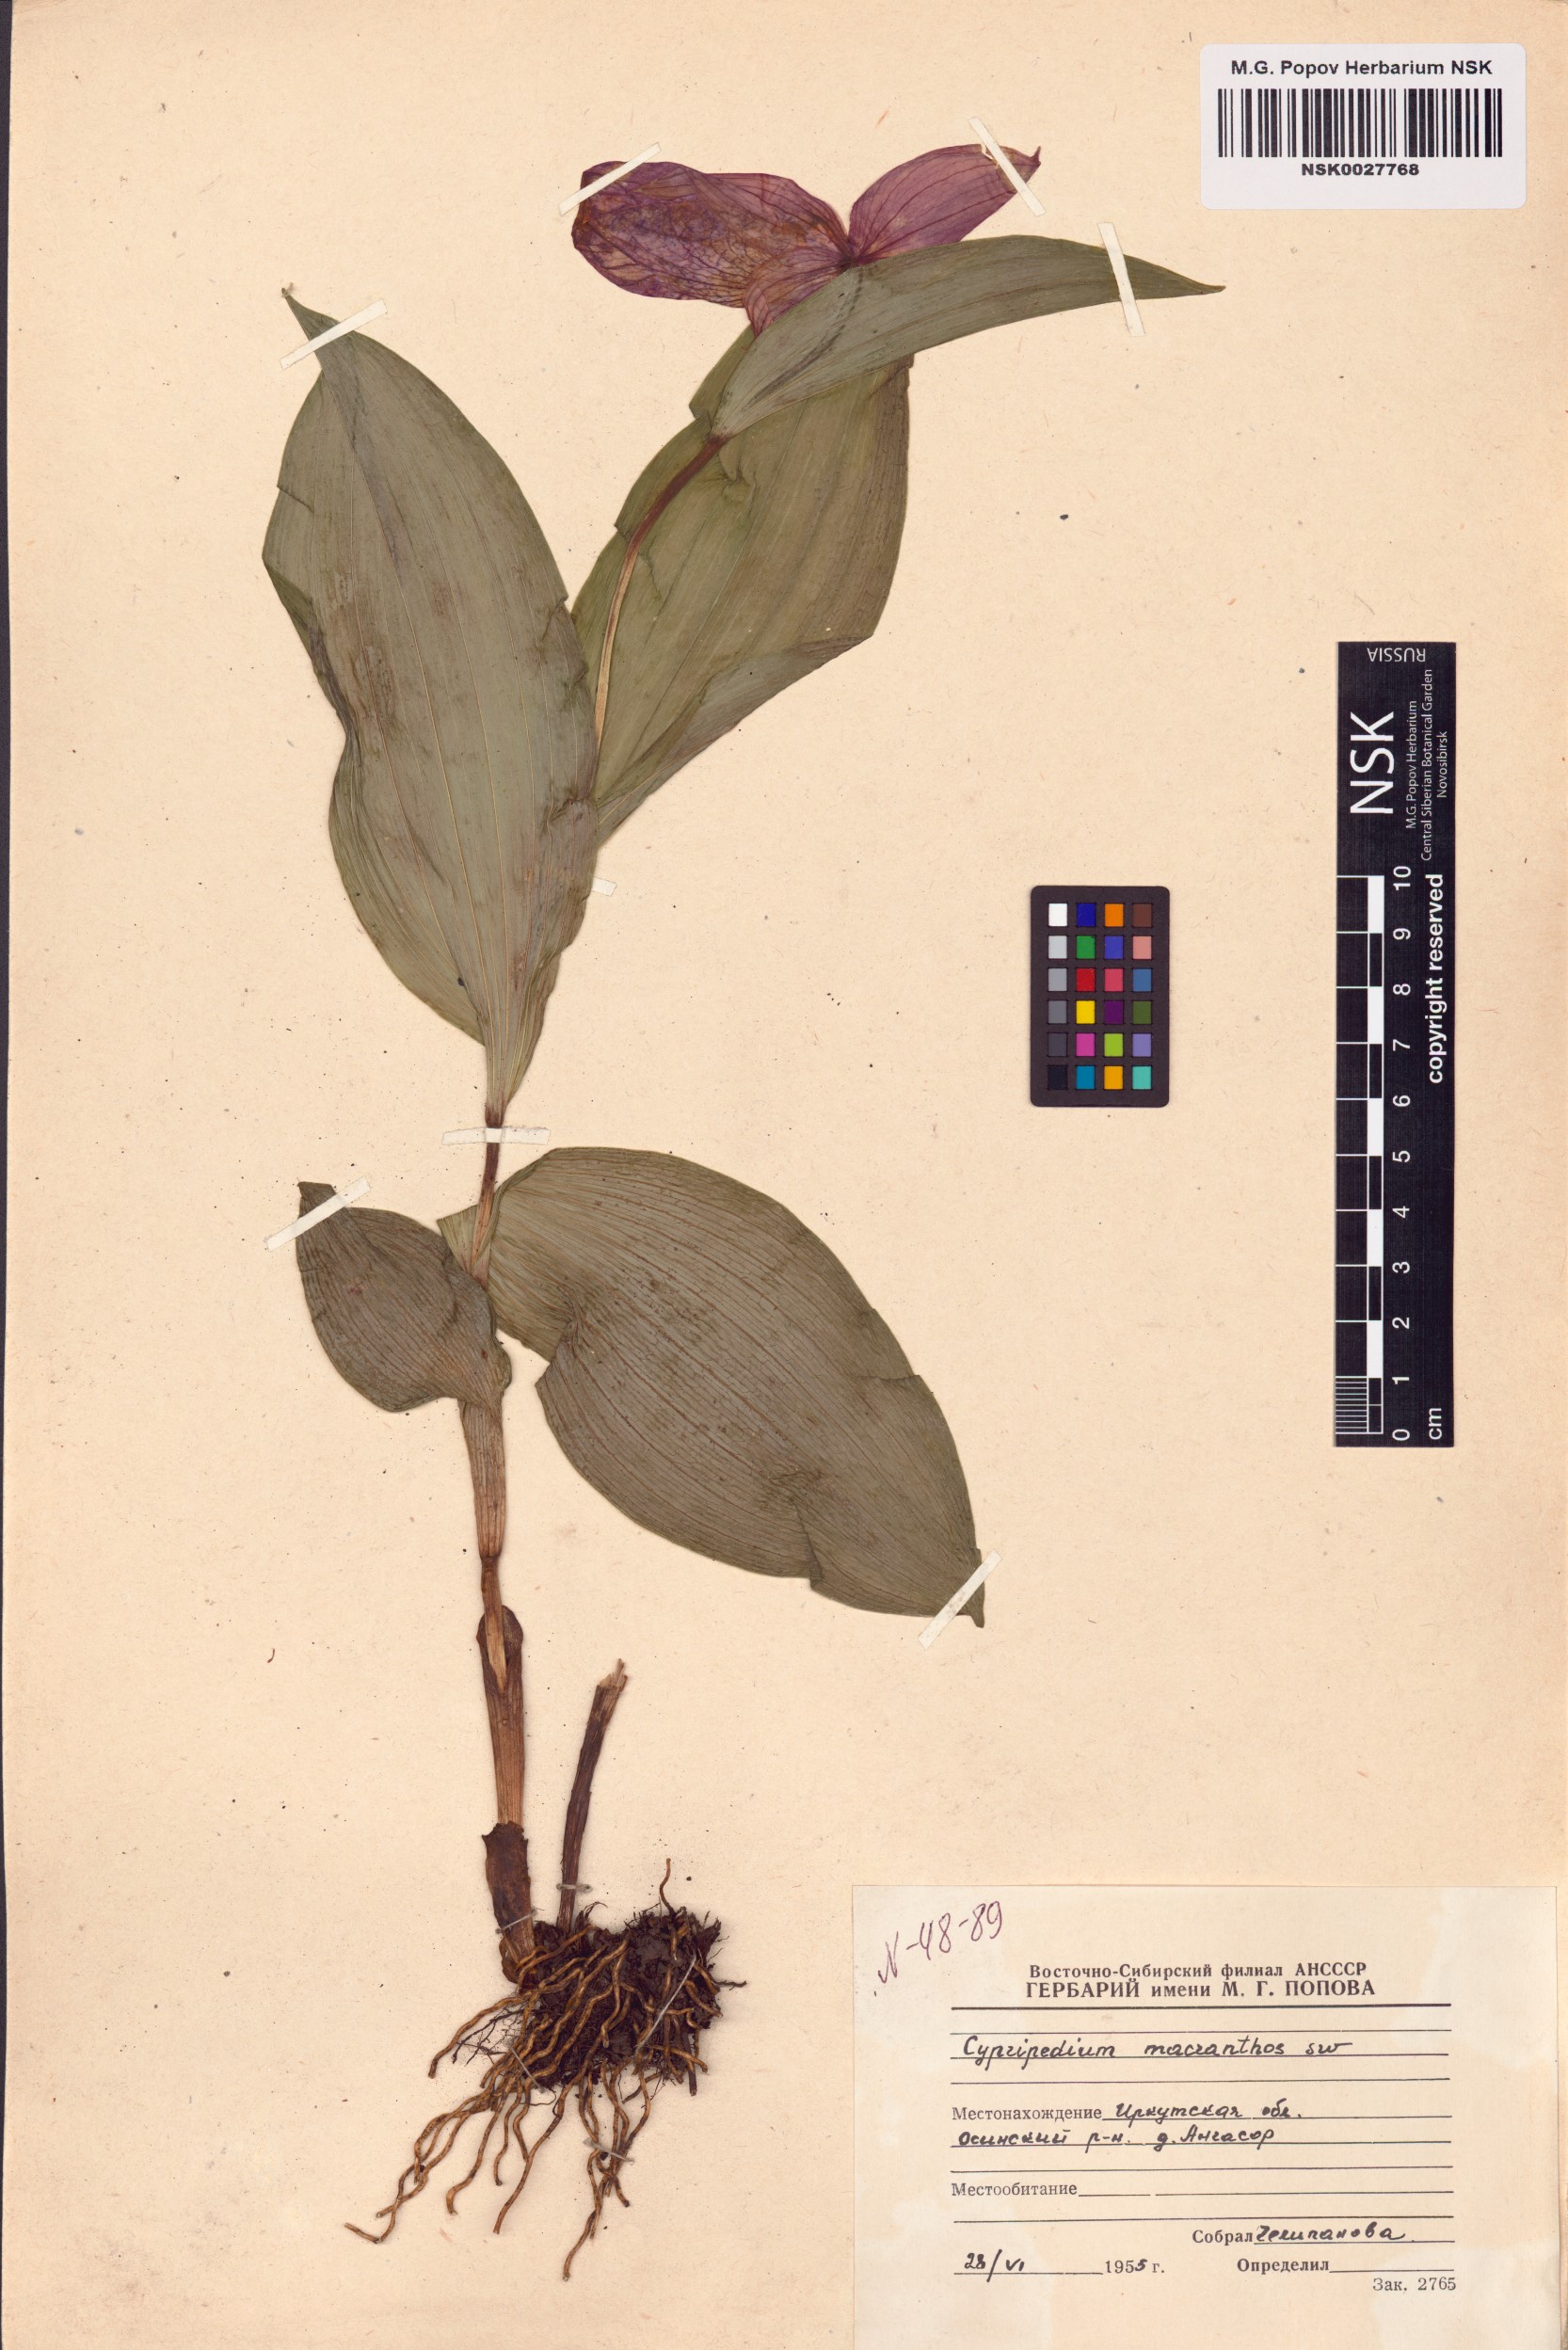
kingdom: Plantae
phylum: Tracheophyta
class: Liliopsida
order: Asparagales
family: Orchidaceae
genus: Cypripedium
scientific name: Cypripedium macranthos
